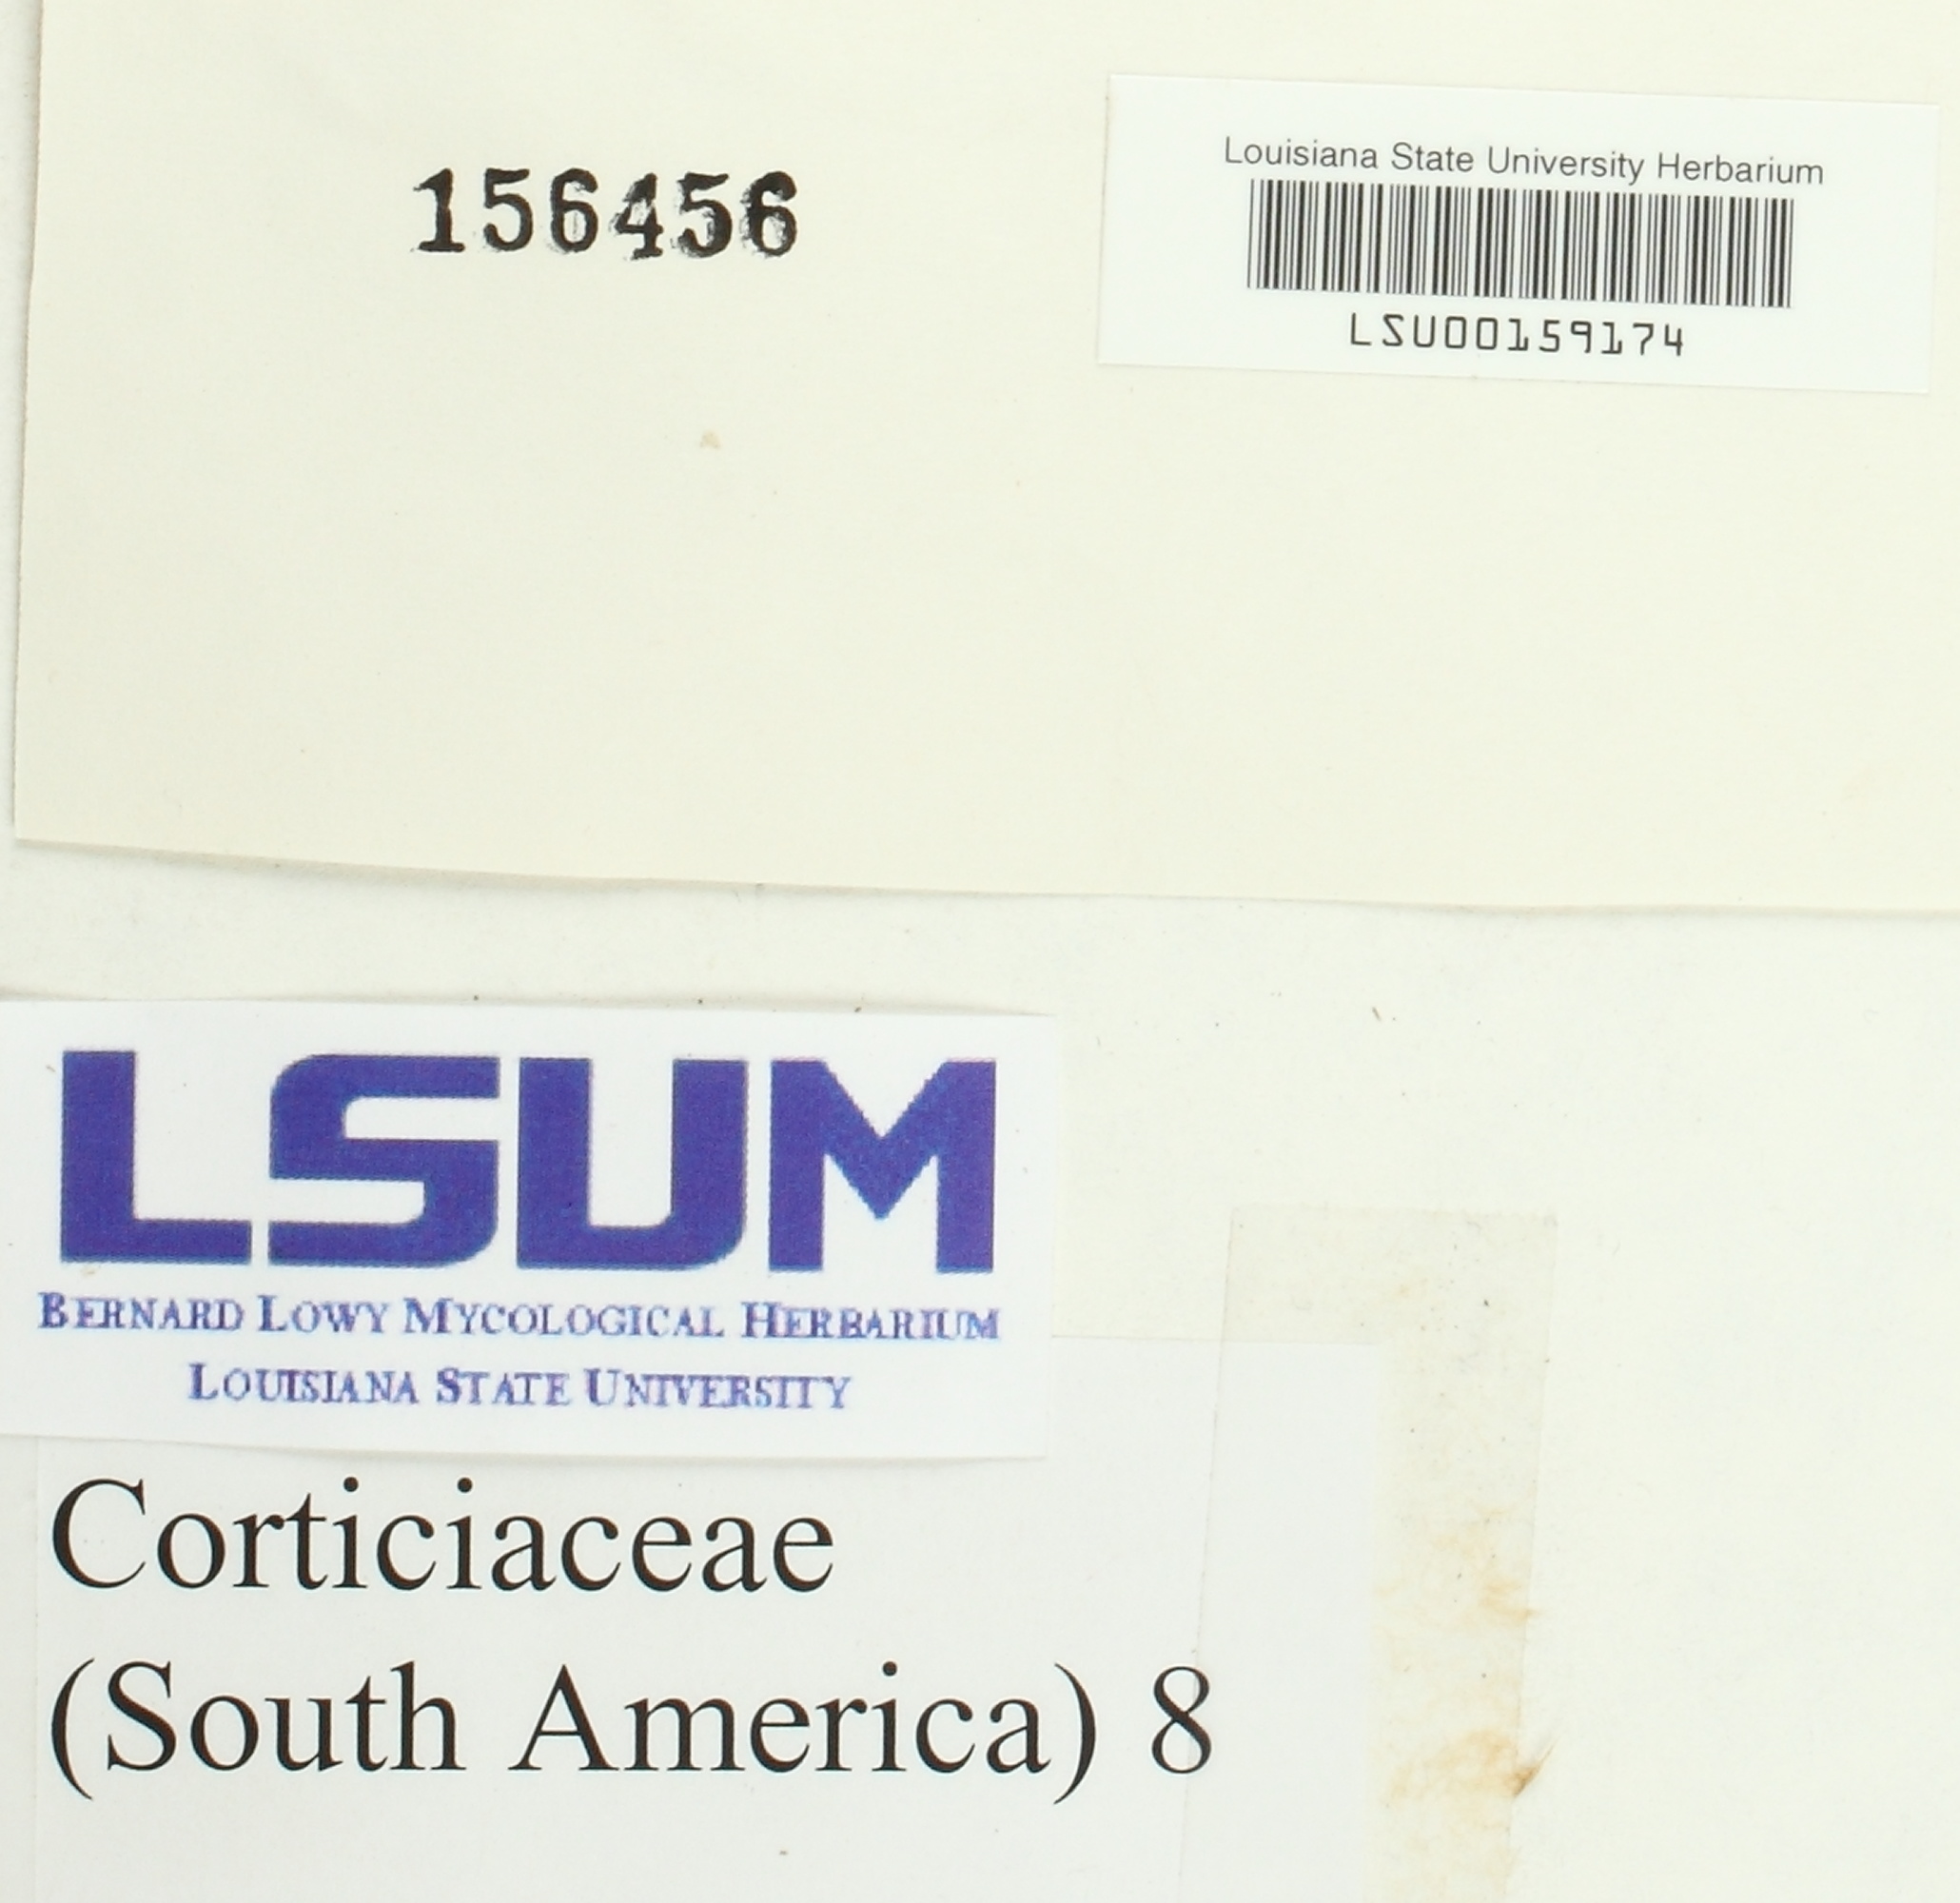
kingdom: Fungi
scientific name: Fungi
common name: Fungi
